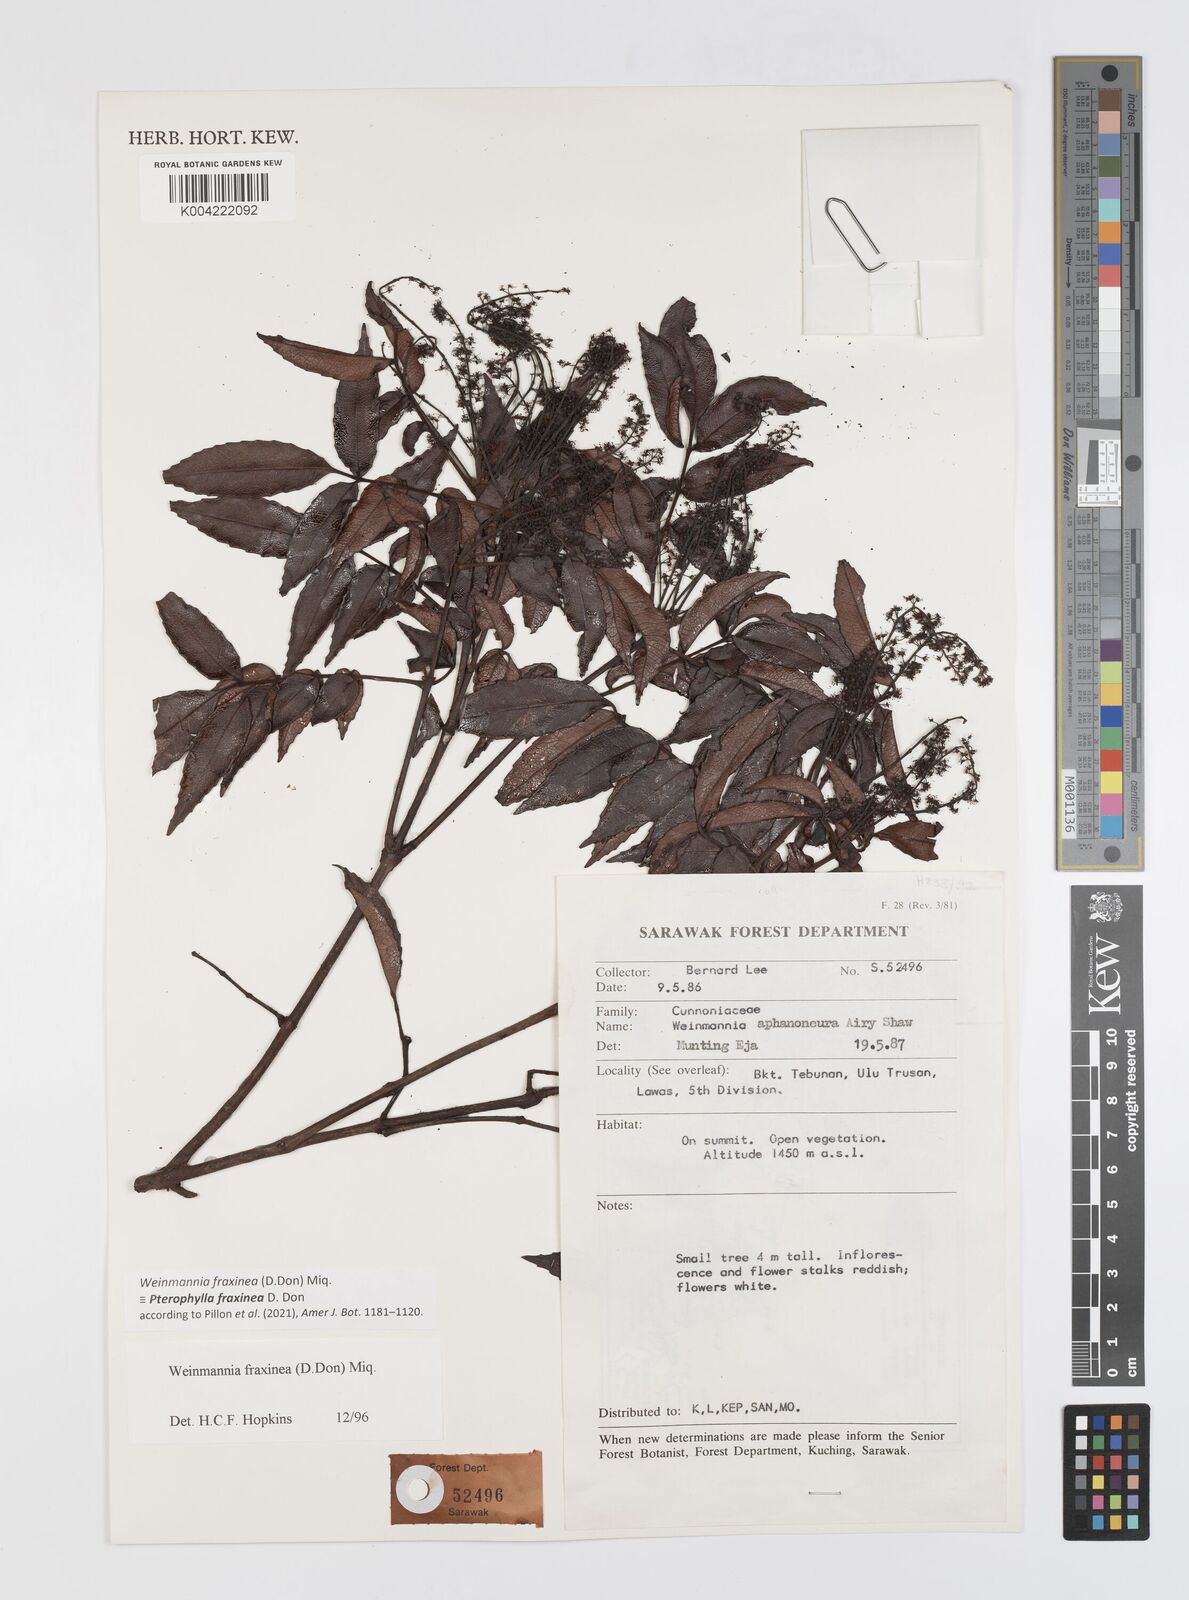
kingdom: Plantae
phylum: Tracheophyta
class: Magnoliopsida
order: Oxalidales
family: Cunoniaceae
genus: Pterophylla
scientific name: Pterophylla fraxinea
